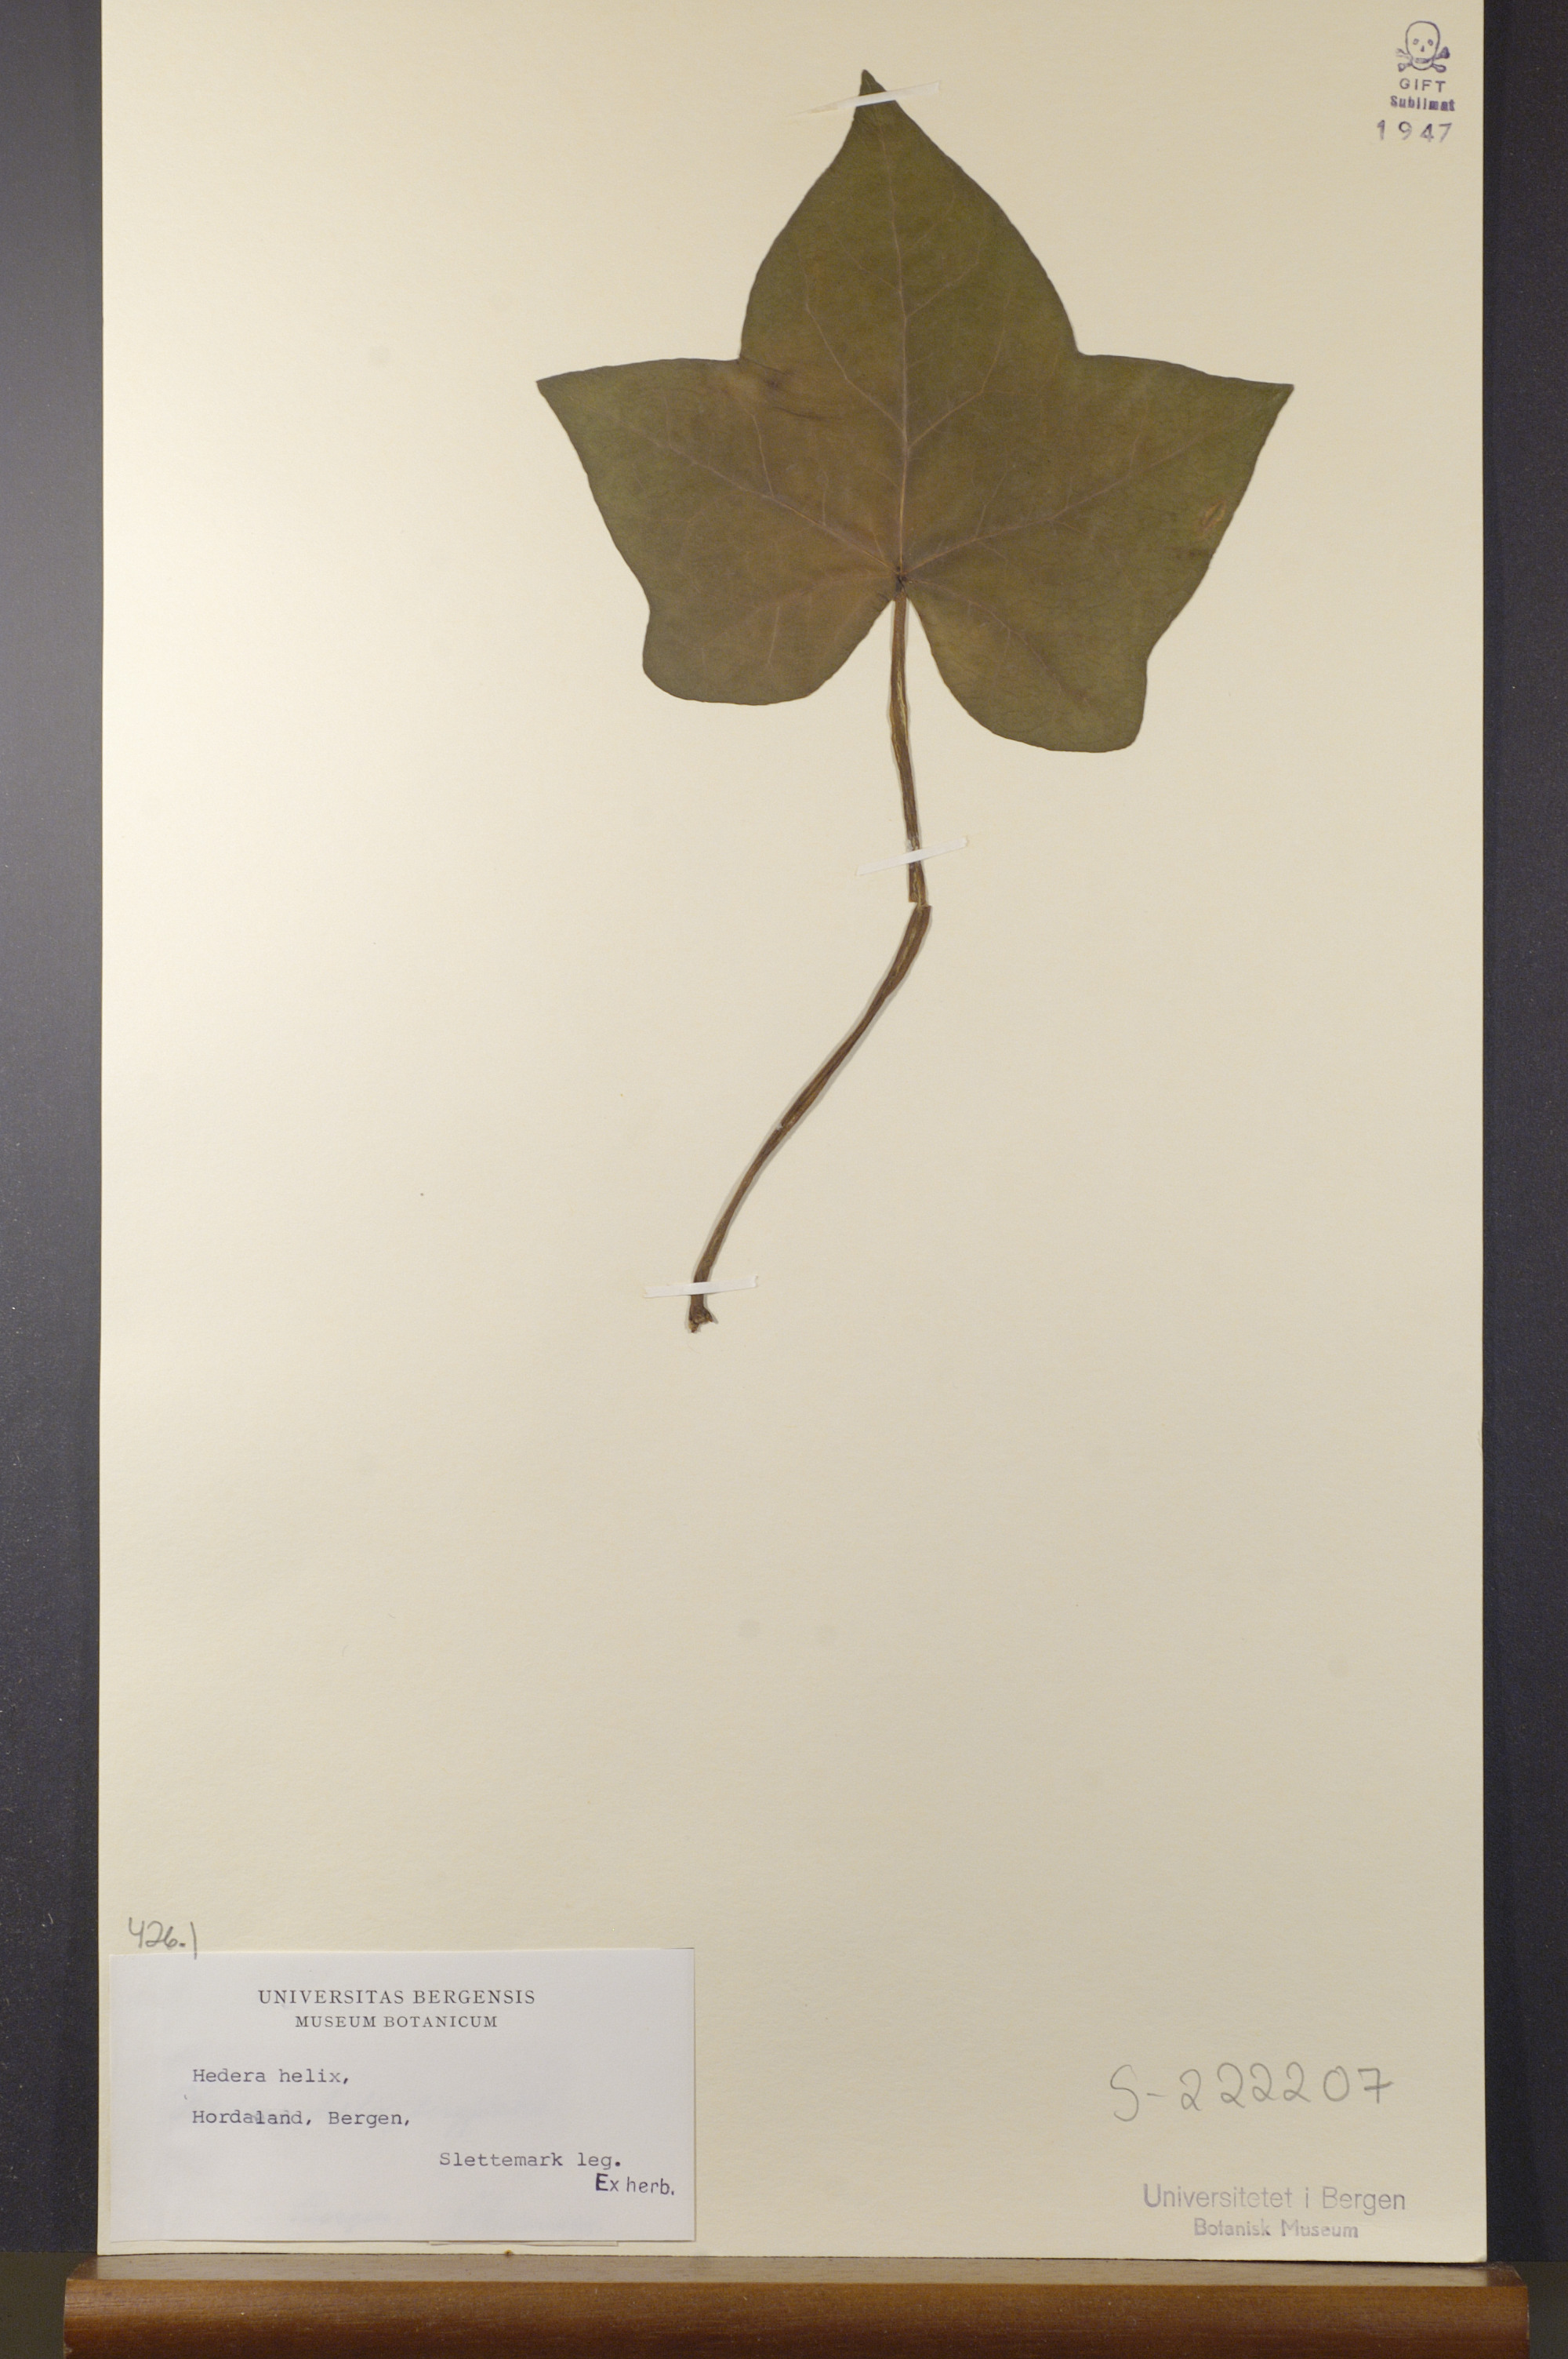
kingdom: Plantae
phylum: Tracheophyta
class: Magnoliopsida
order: Apiales
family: Araliaceae
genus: Hedera
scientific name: Hedera helix
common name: Ivy
